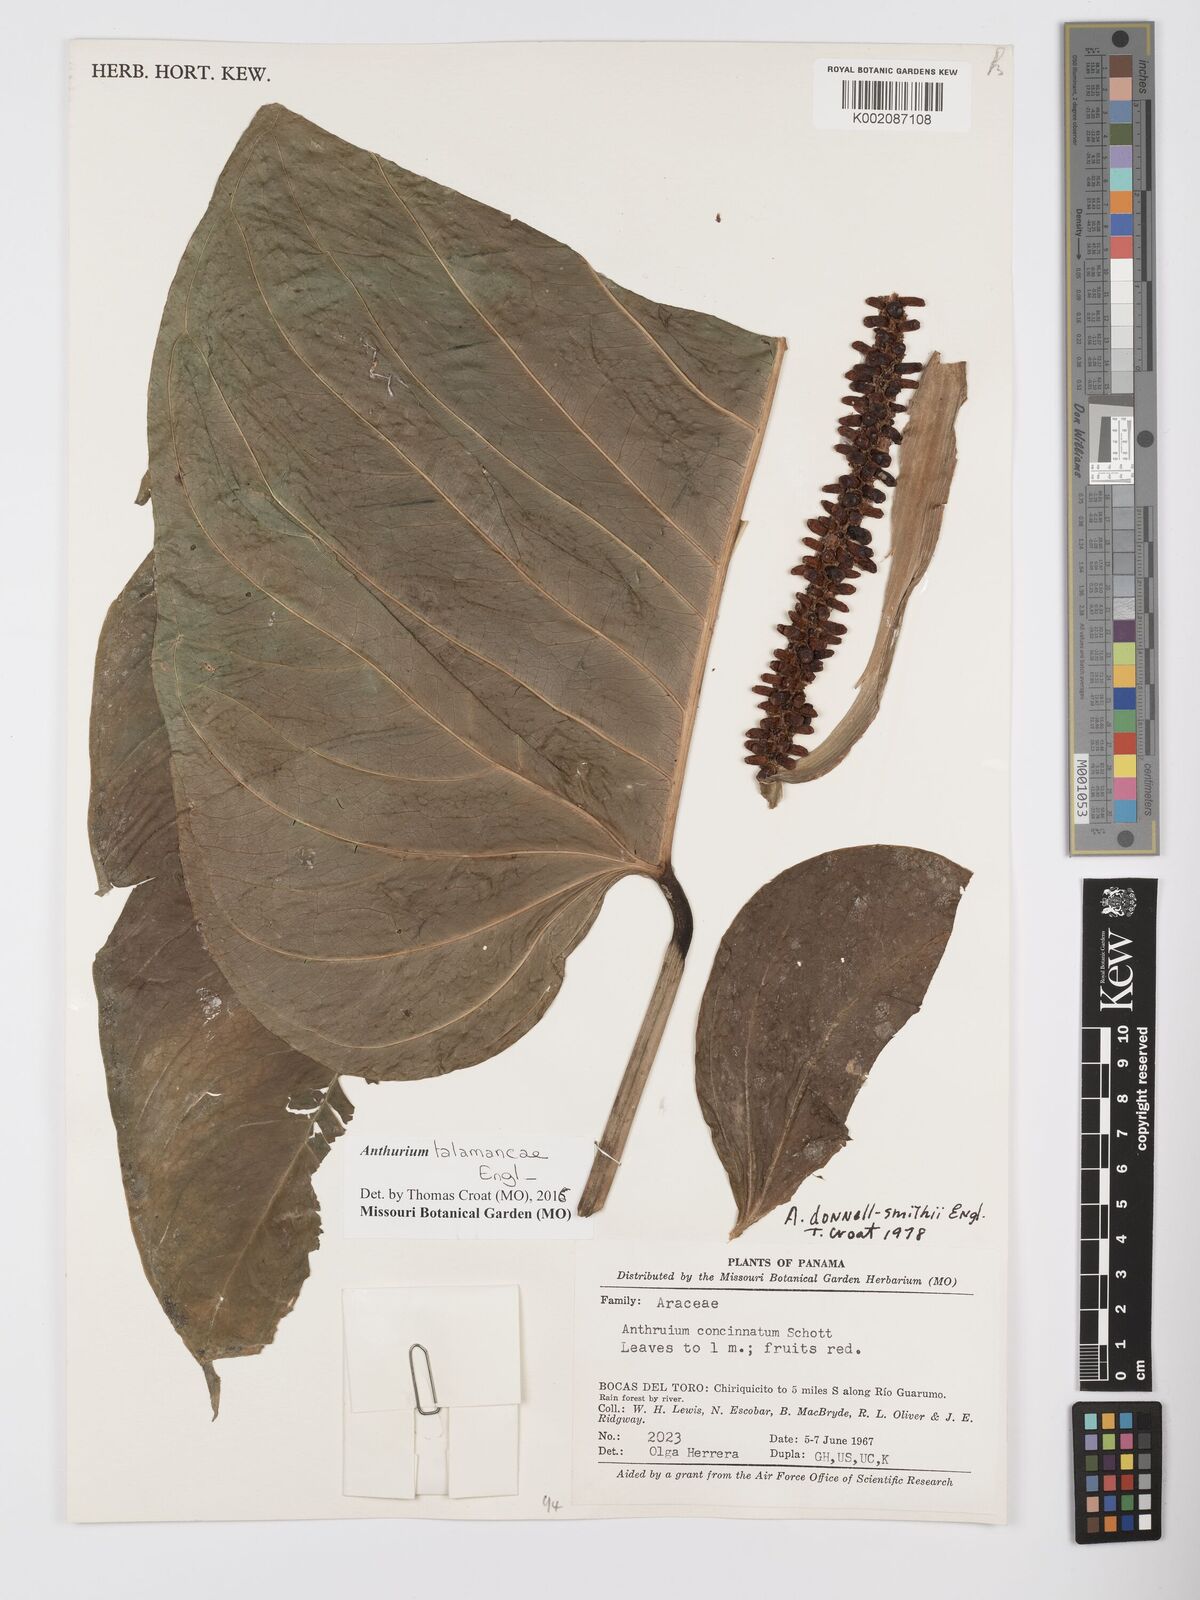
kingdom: Plantae
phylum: Tracheophyta
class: Liliopsida
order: Alismatales
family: Araceae
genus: Anthurium
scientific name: Anthurium talamancae
